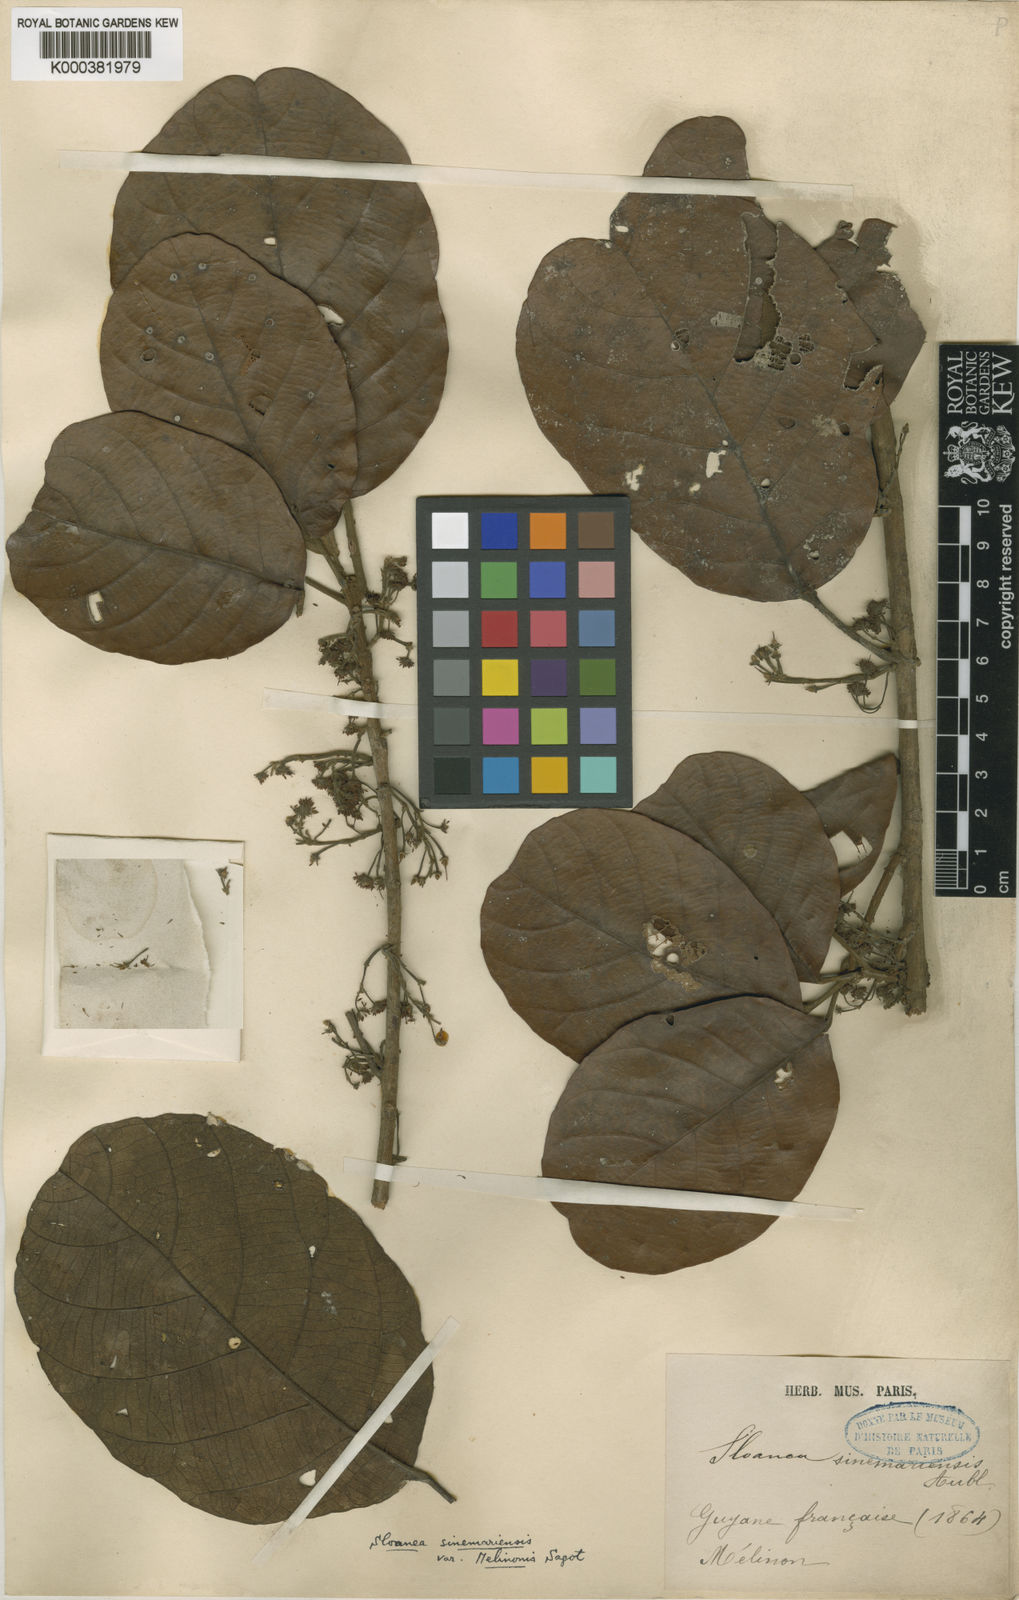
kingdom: Plantae
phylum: Tracheophyta
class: Magnoliopsida
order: Oxalidales
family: Elaeocarpaceae
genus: Sloanea
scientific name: Sloanea eichleri
